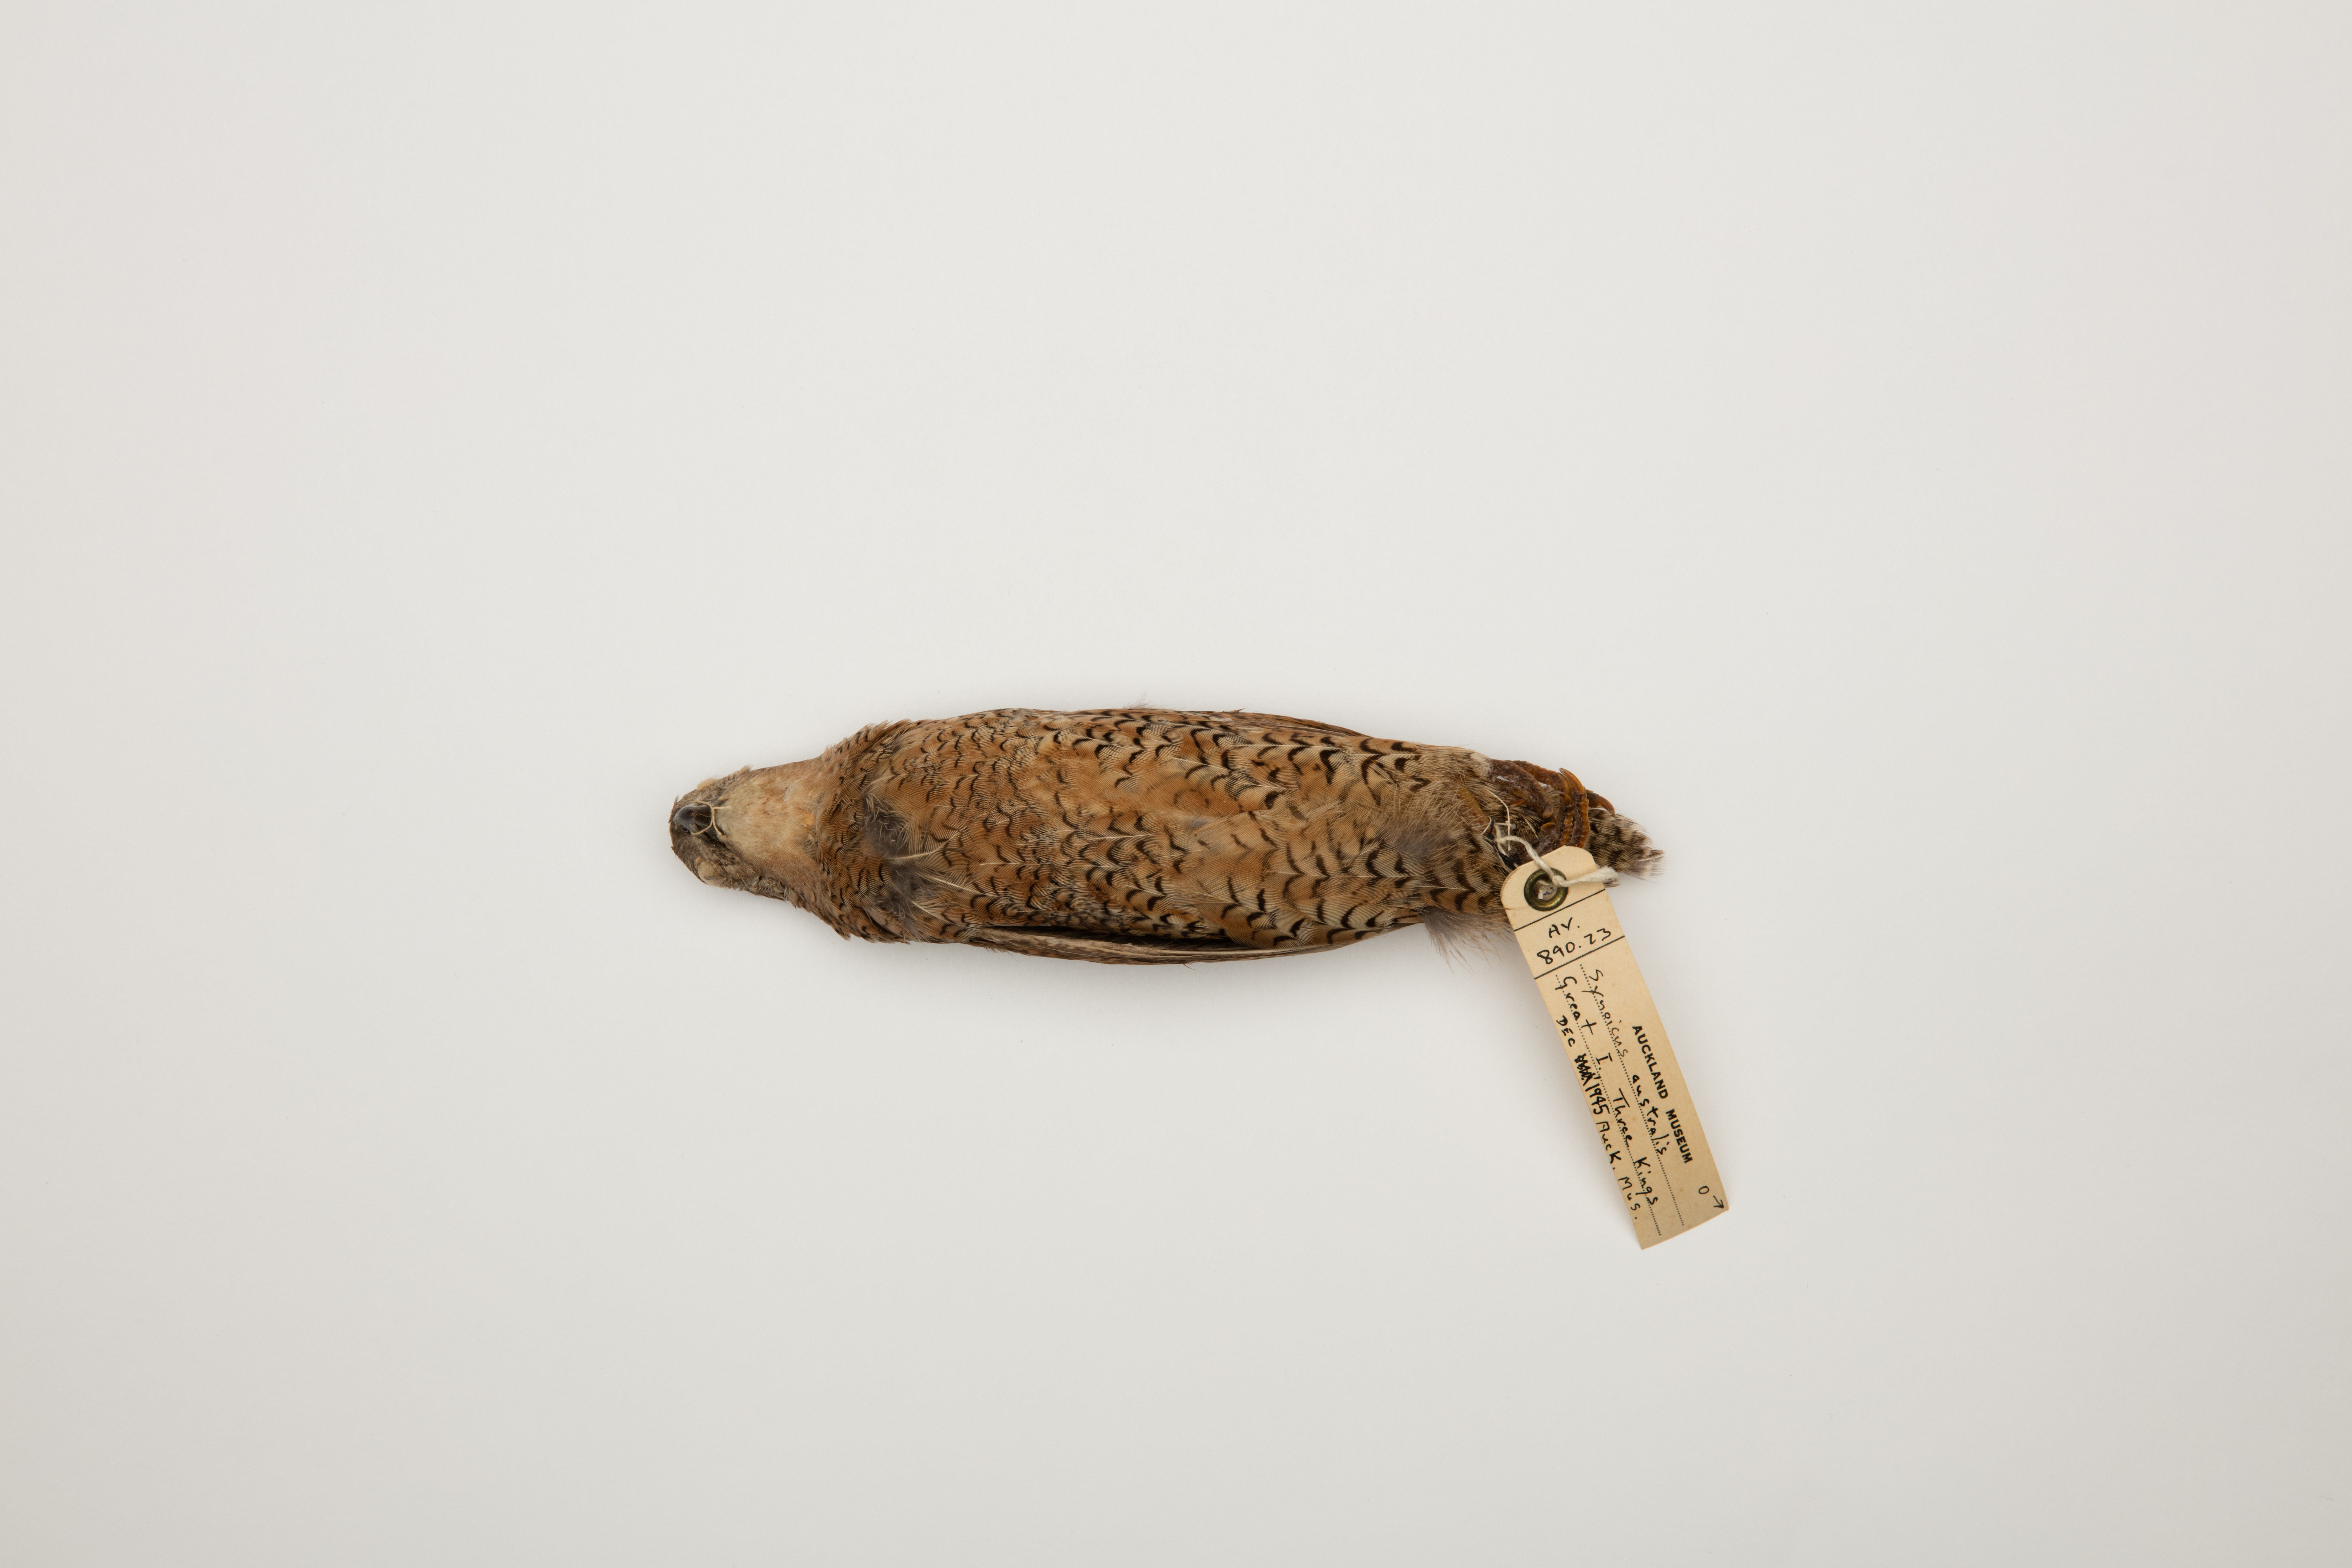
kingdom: Animalia
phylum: Chordata
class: Aves
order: Galliformes
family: Phasianidae
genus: Synoicus
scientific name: Synoicus ypsilophorus
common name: Brown quail
